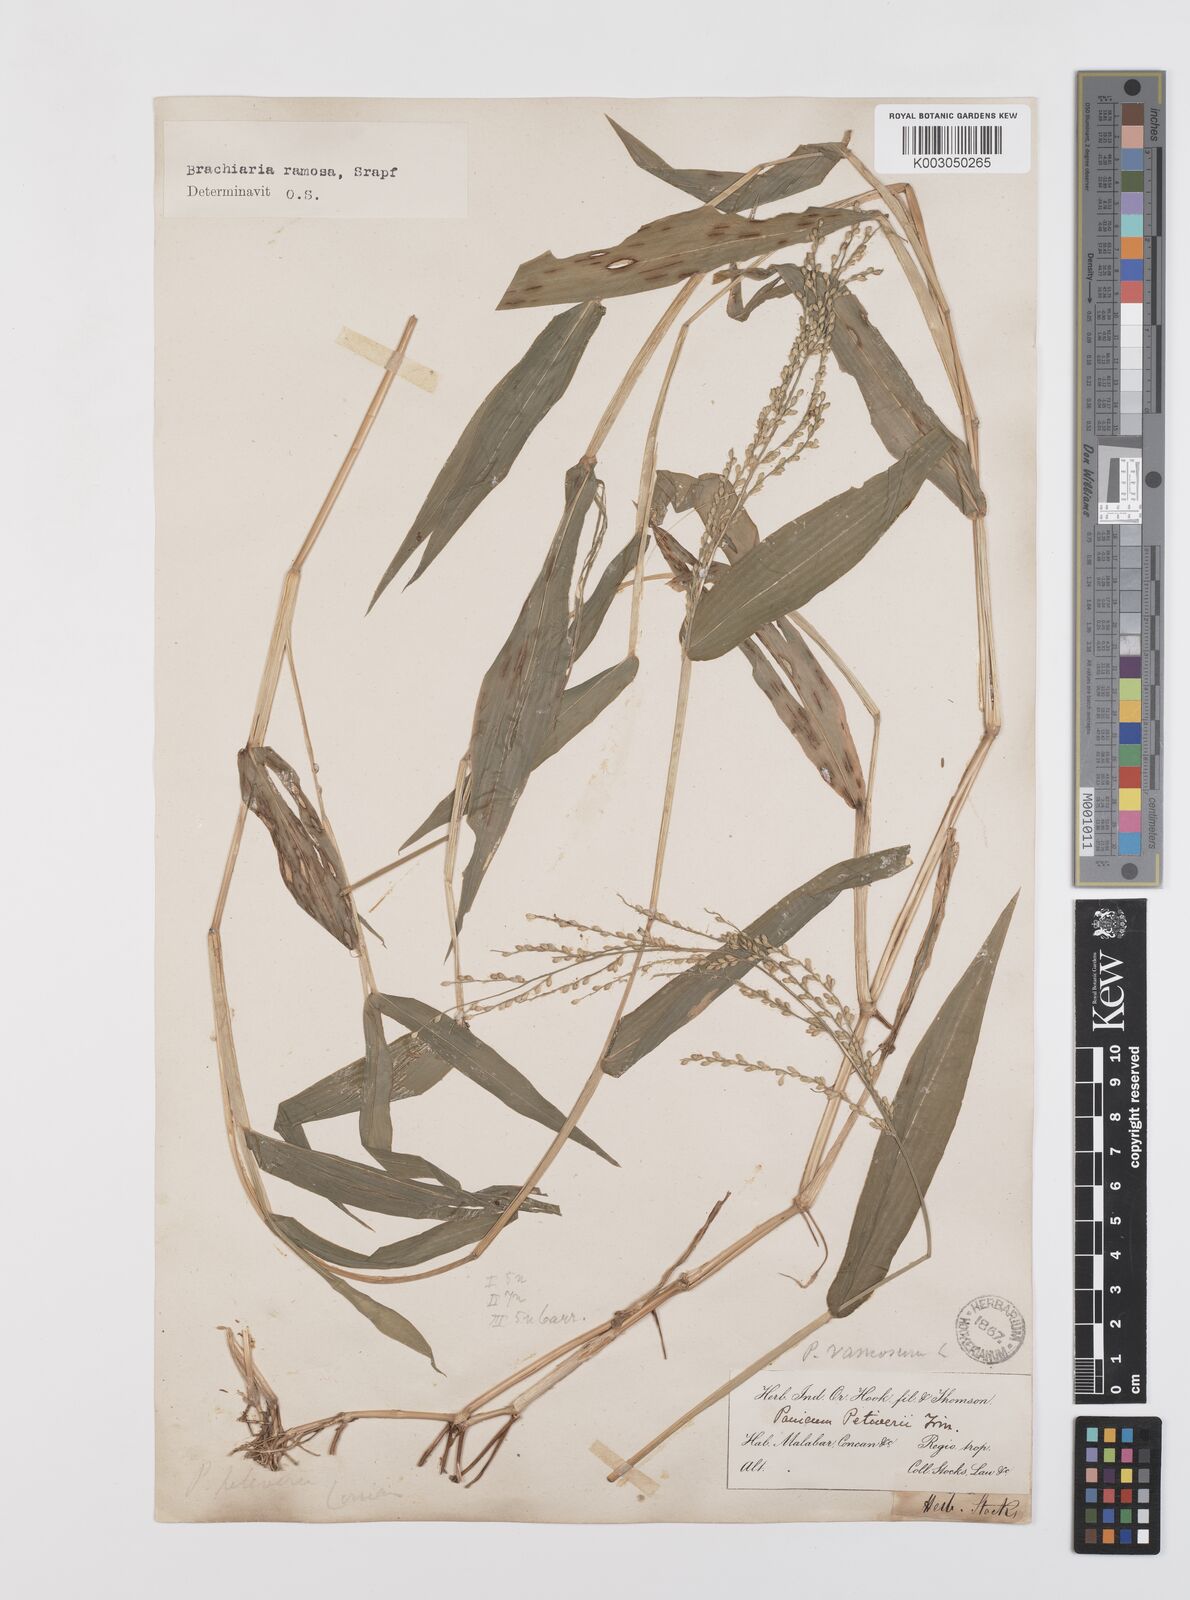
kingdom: Plantae
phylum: Tracheophyta
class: Liliopsida
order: Poales
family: Poaceae
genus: Urochloa
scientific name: Urochloa ramosa
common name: Browntop millet
